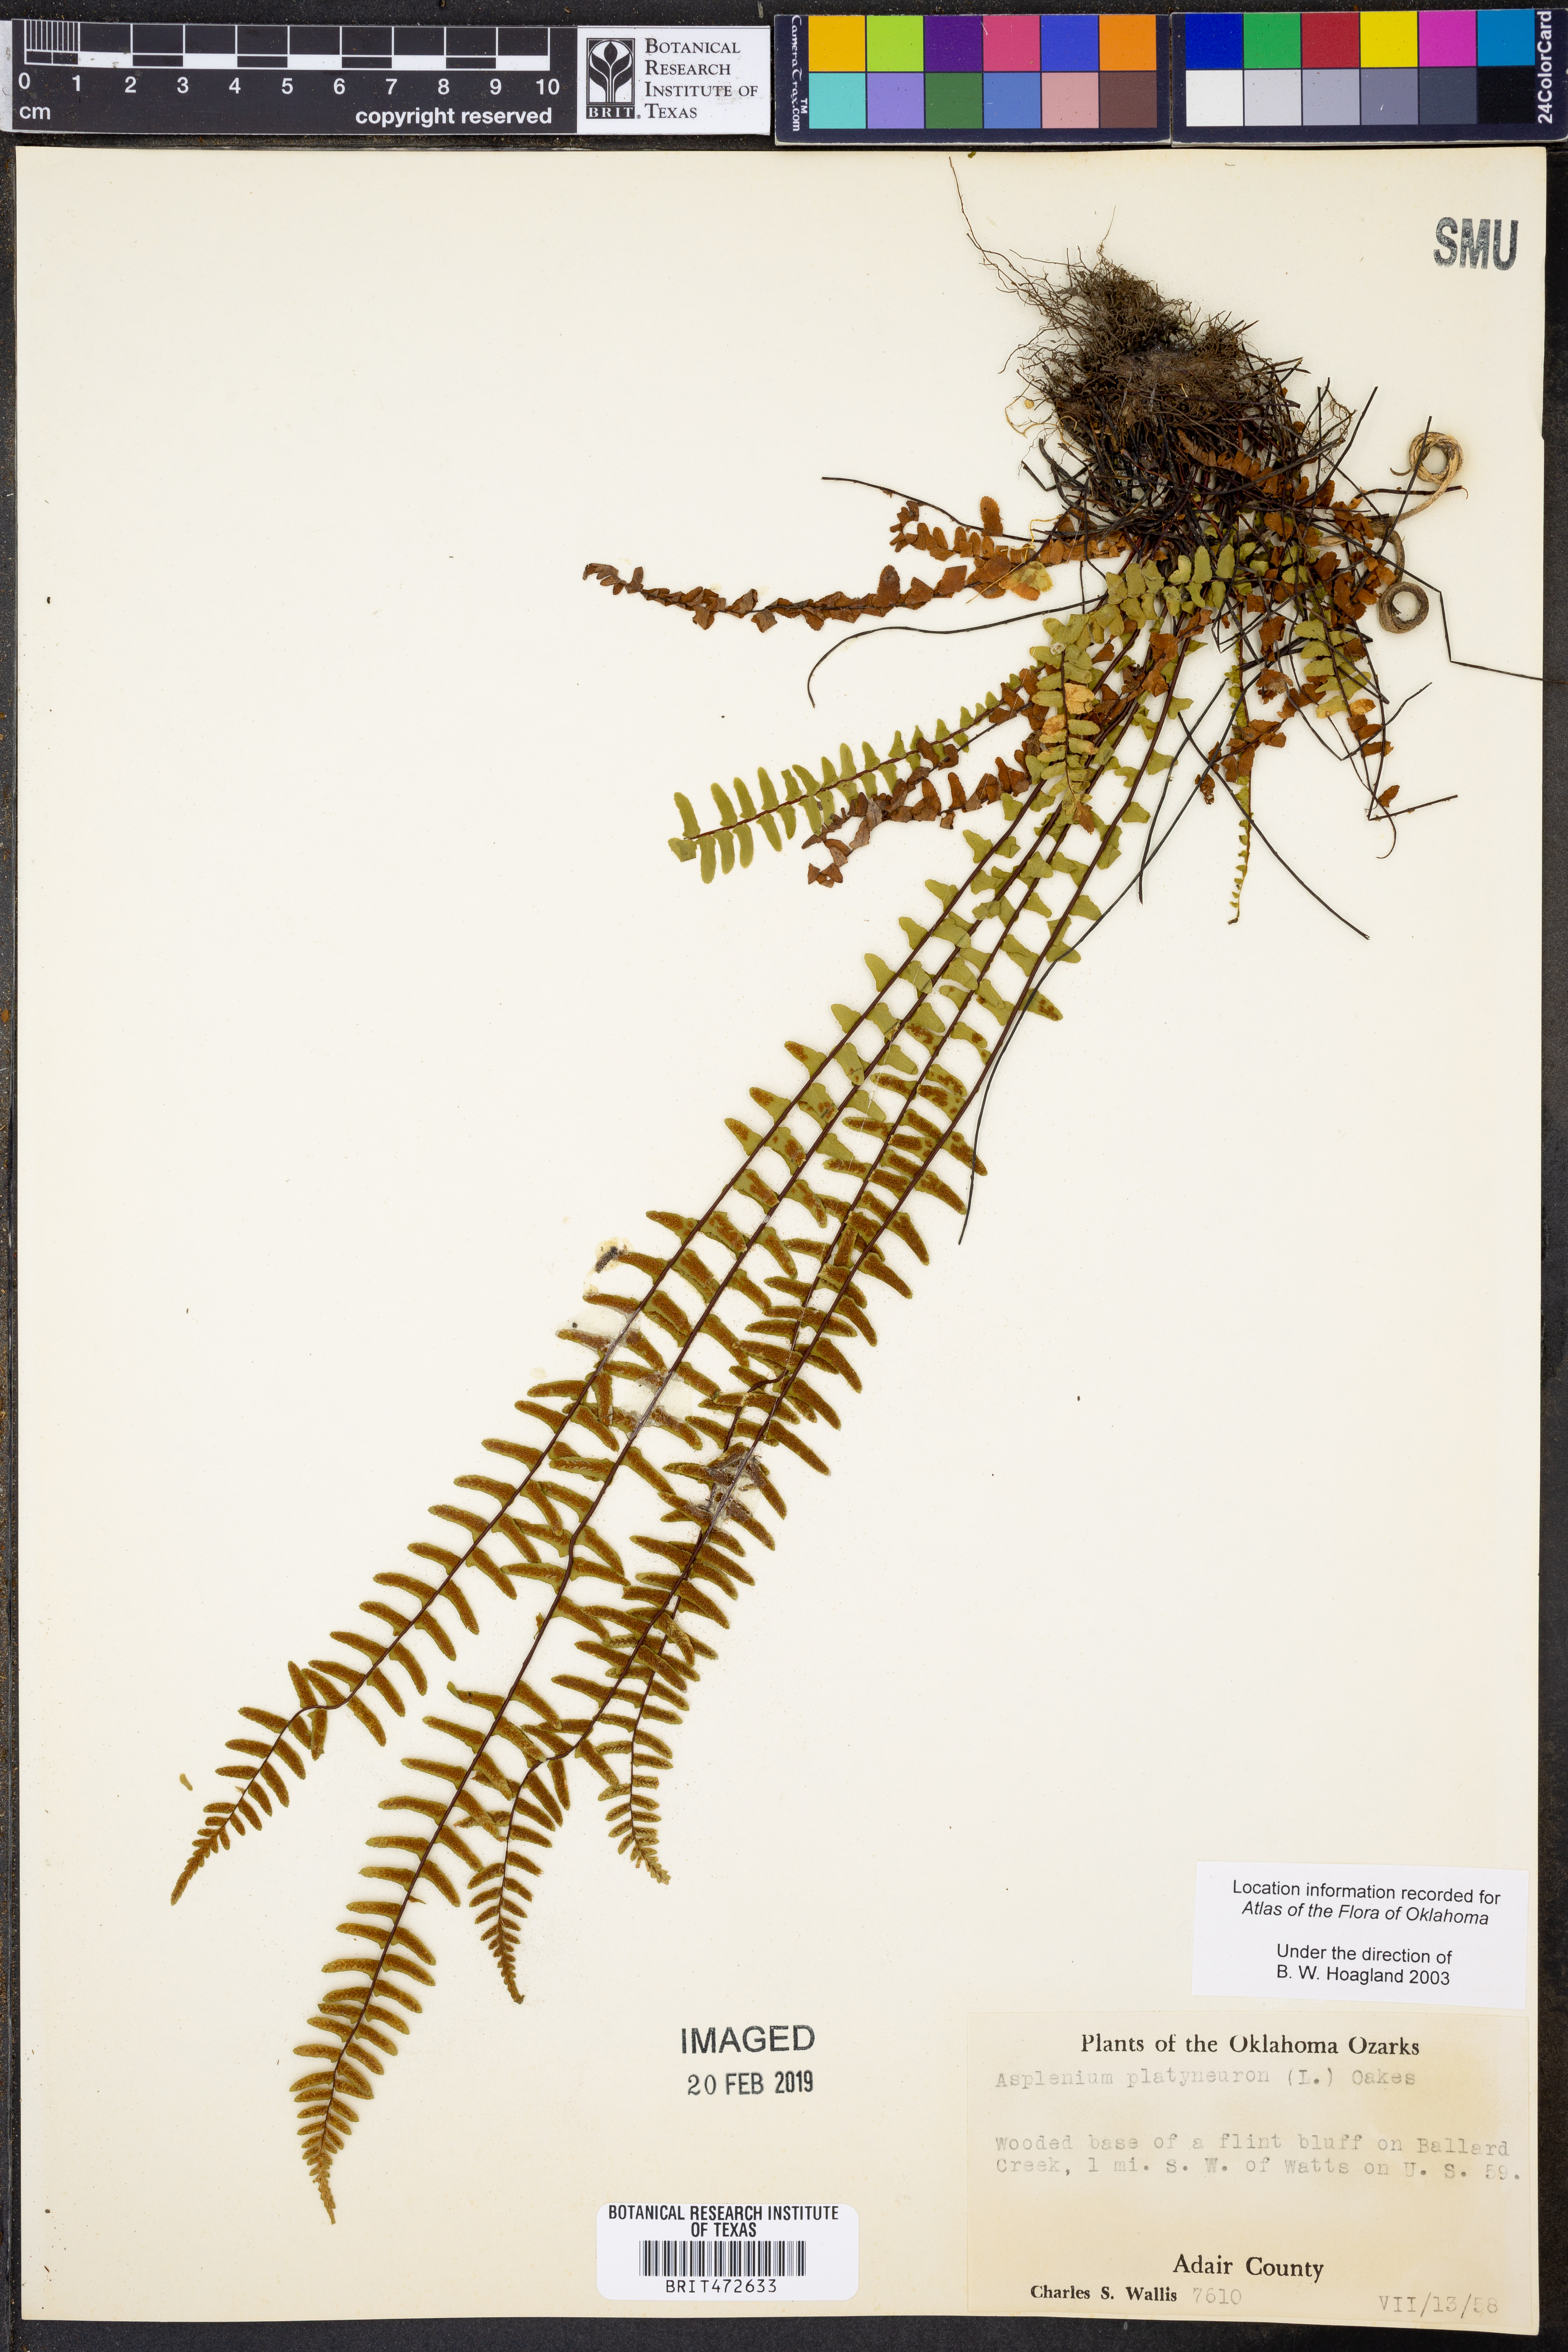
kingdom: Plantae
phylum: Tracheophyta
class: Polypodiopsida
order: Polypodiales
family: Aspleniaceae
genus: Asplenium
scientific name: Asplenium platyneuron
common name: Ebony spleenwort
